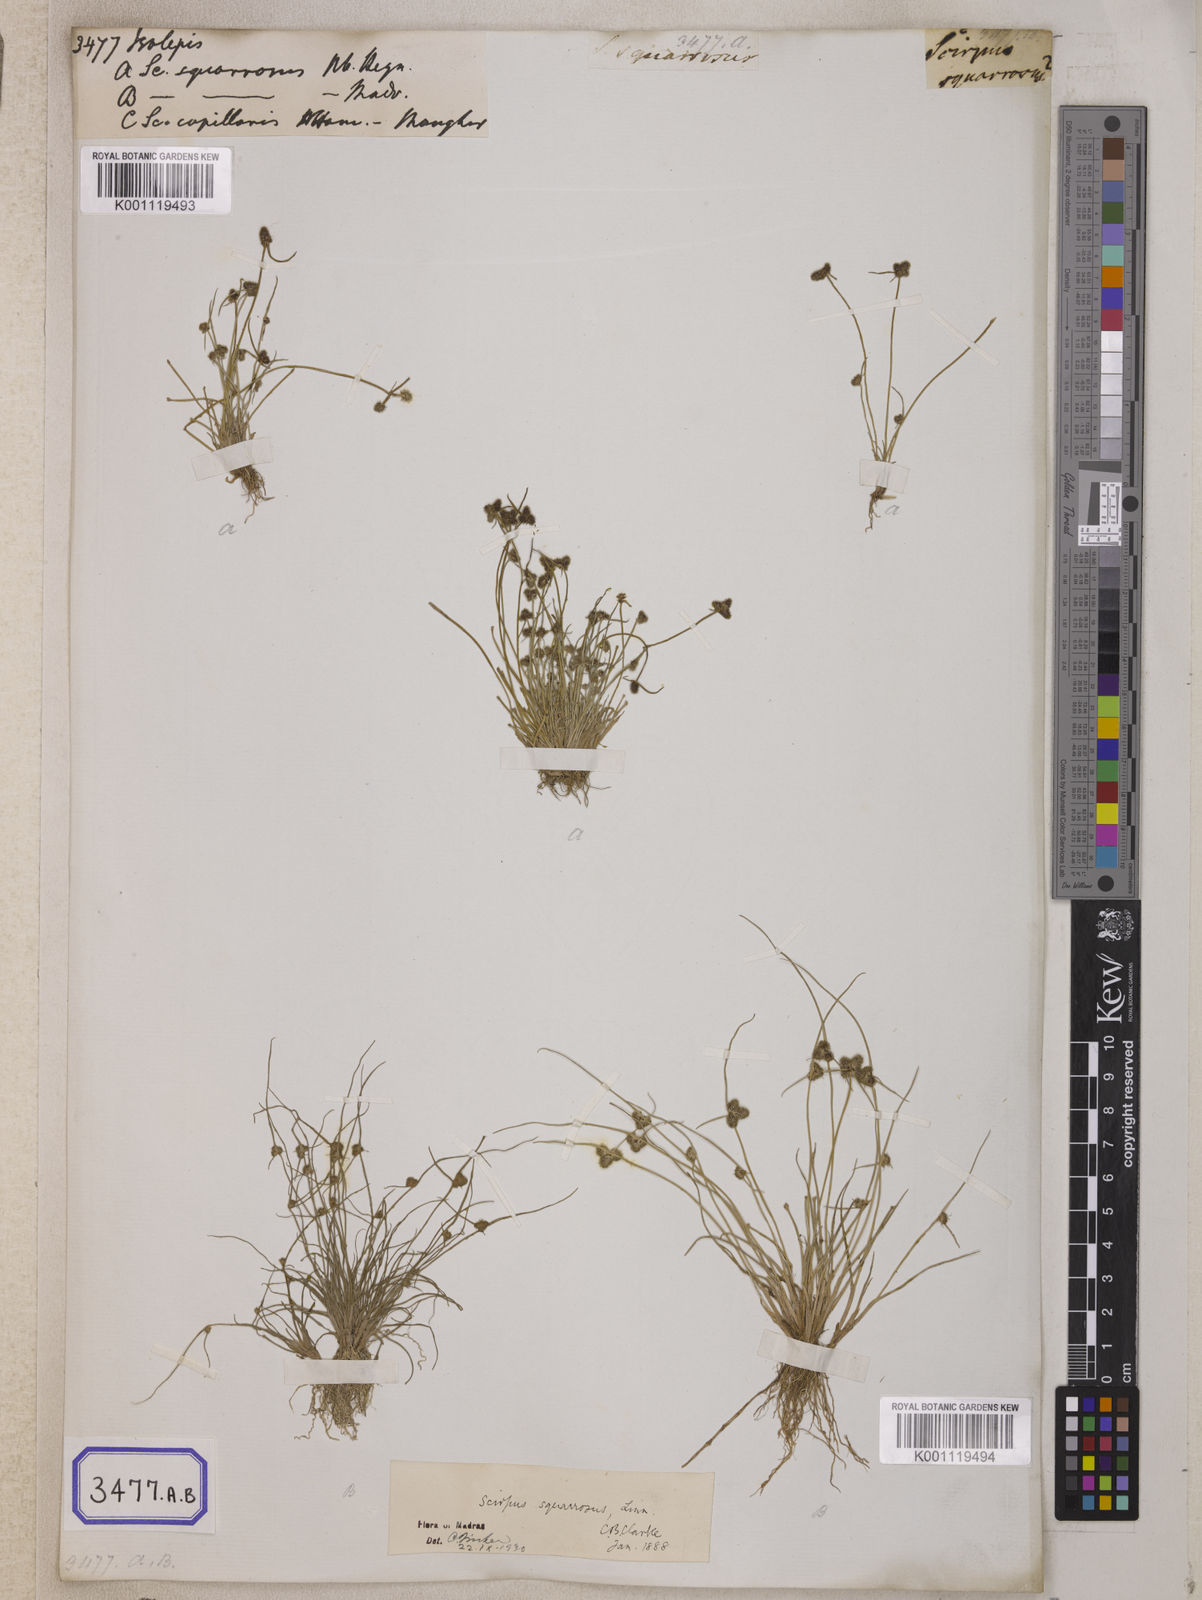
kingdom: Plantae
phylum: Tracheophyta
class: Liliopsida
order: Poales
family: Cyperaceae
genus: Isolepis
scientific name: Isolepis
